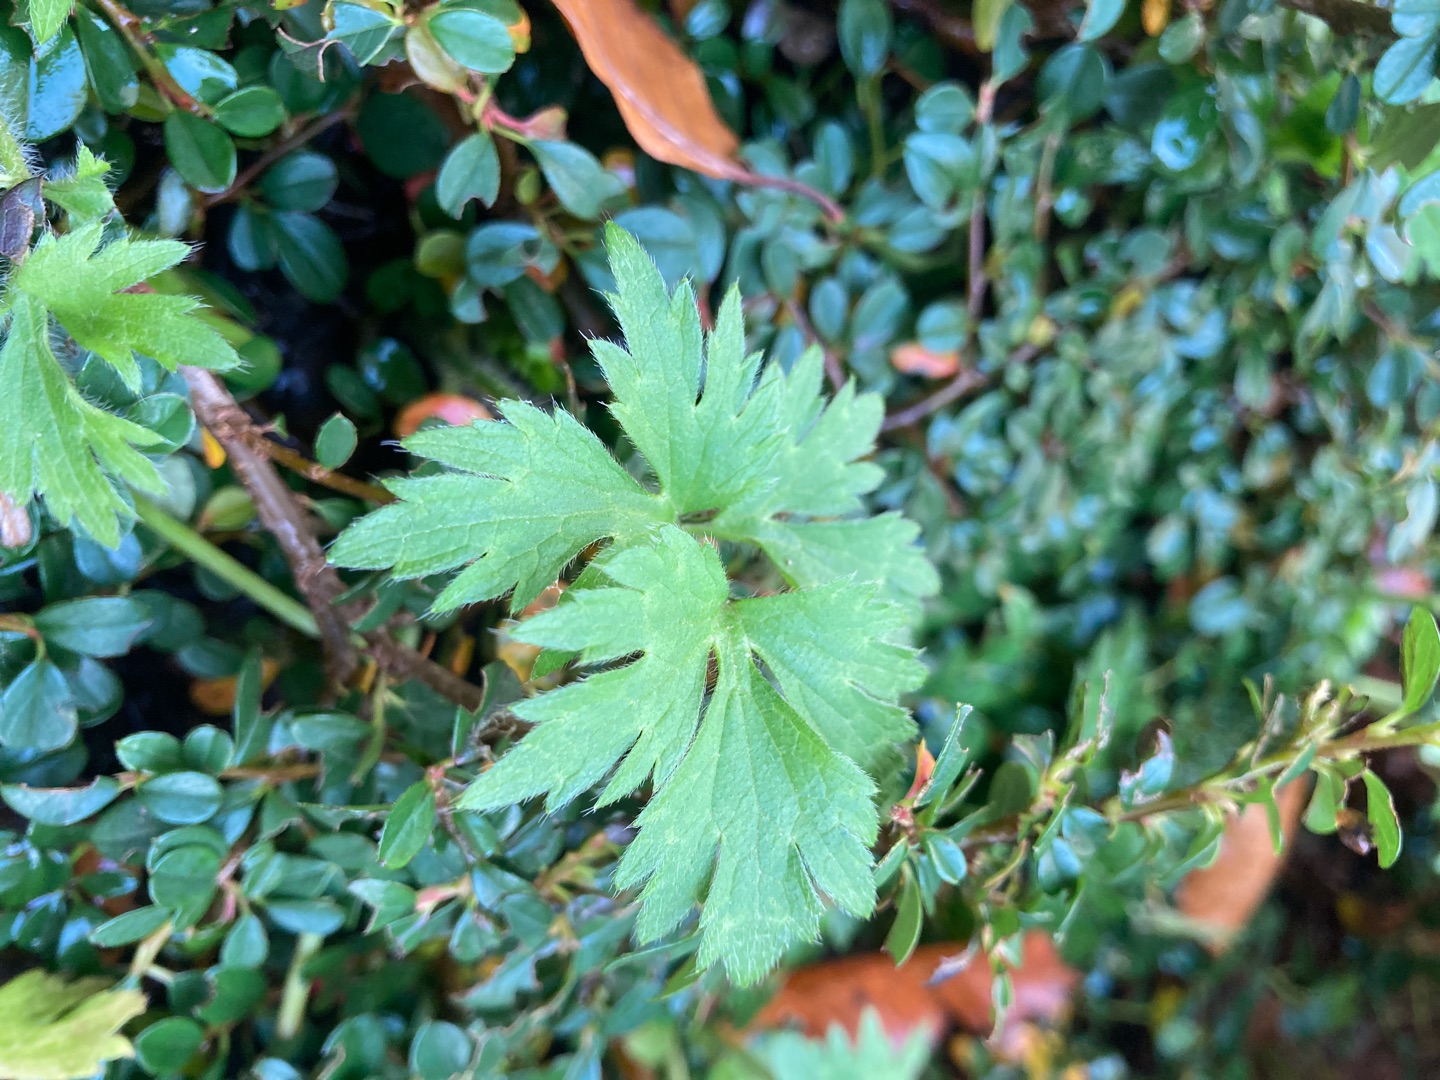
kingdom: Plantae
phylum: Tracheophyta
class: Magnoliopsida
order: Ranunculales
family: Ranunculaceae
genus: Ranunculus
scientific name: Ranunculus repens
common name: Lav ranunkel
